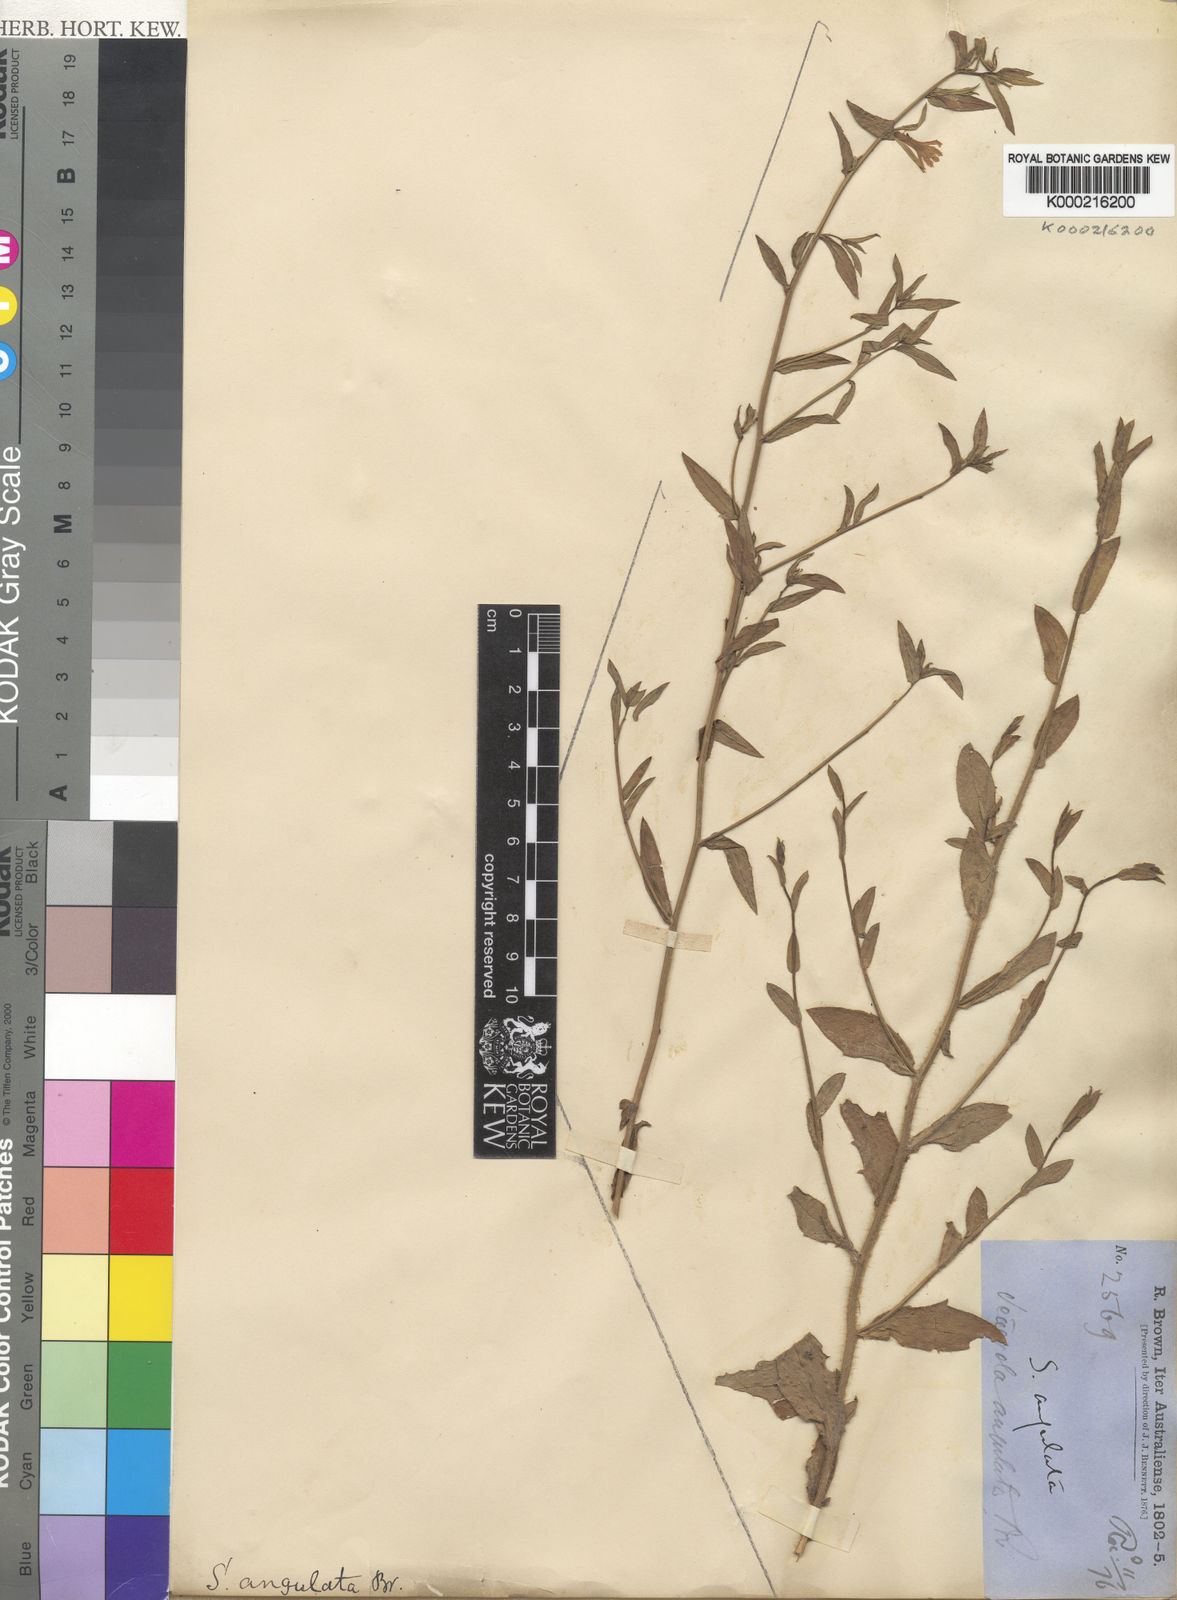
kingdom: Plantae
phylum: Tracheophyta
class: Magnoliopsida
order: Asterales
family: Goodeniaceae
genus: Scaevola
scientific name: Scaevola angulata
